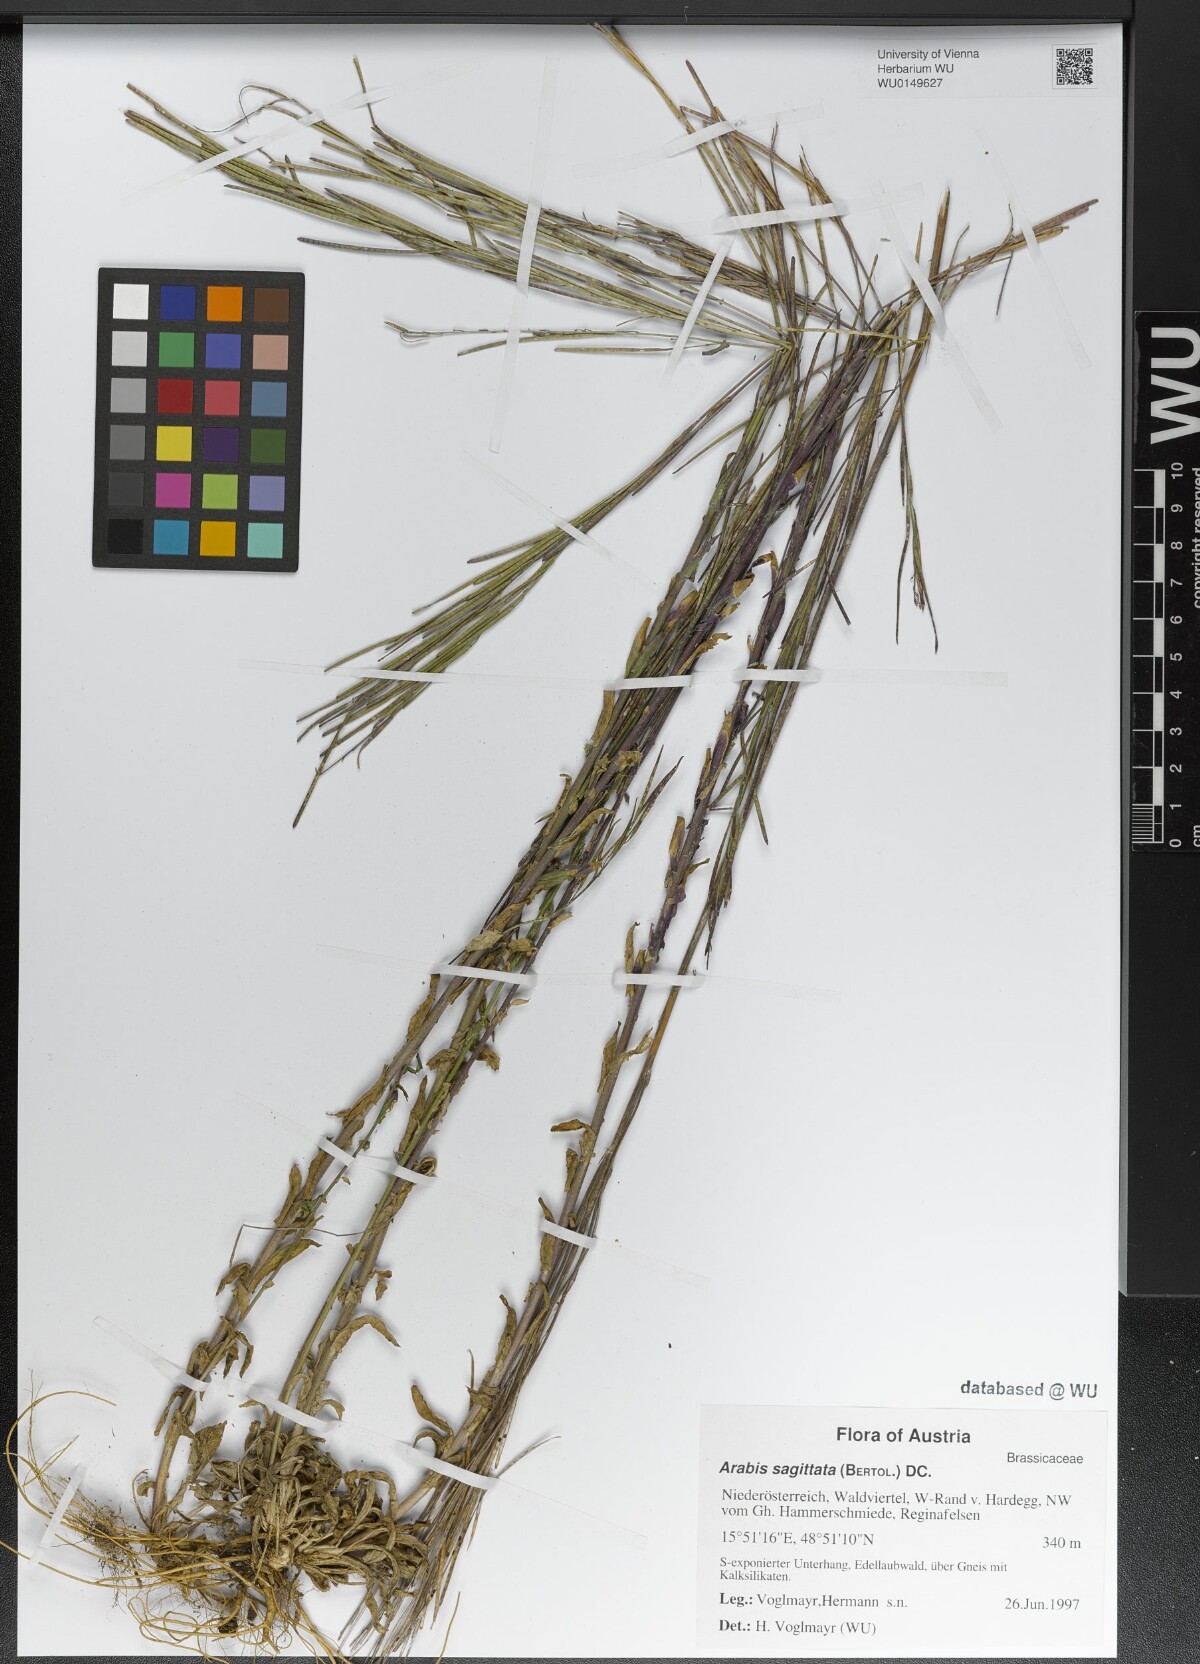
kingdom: Plantae
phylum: Tracheophyta
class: Magnoliopsida
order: Brassicales
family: Brassicaceae
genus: Arabis
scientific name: Arabis sagittata
